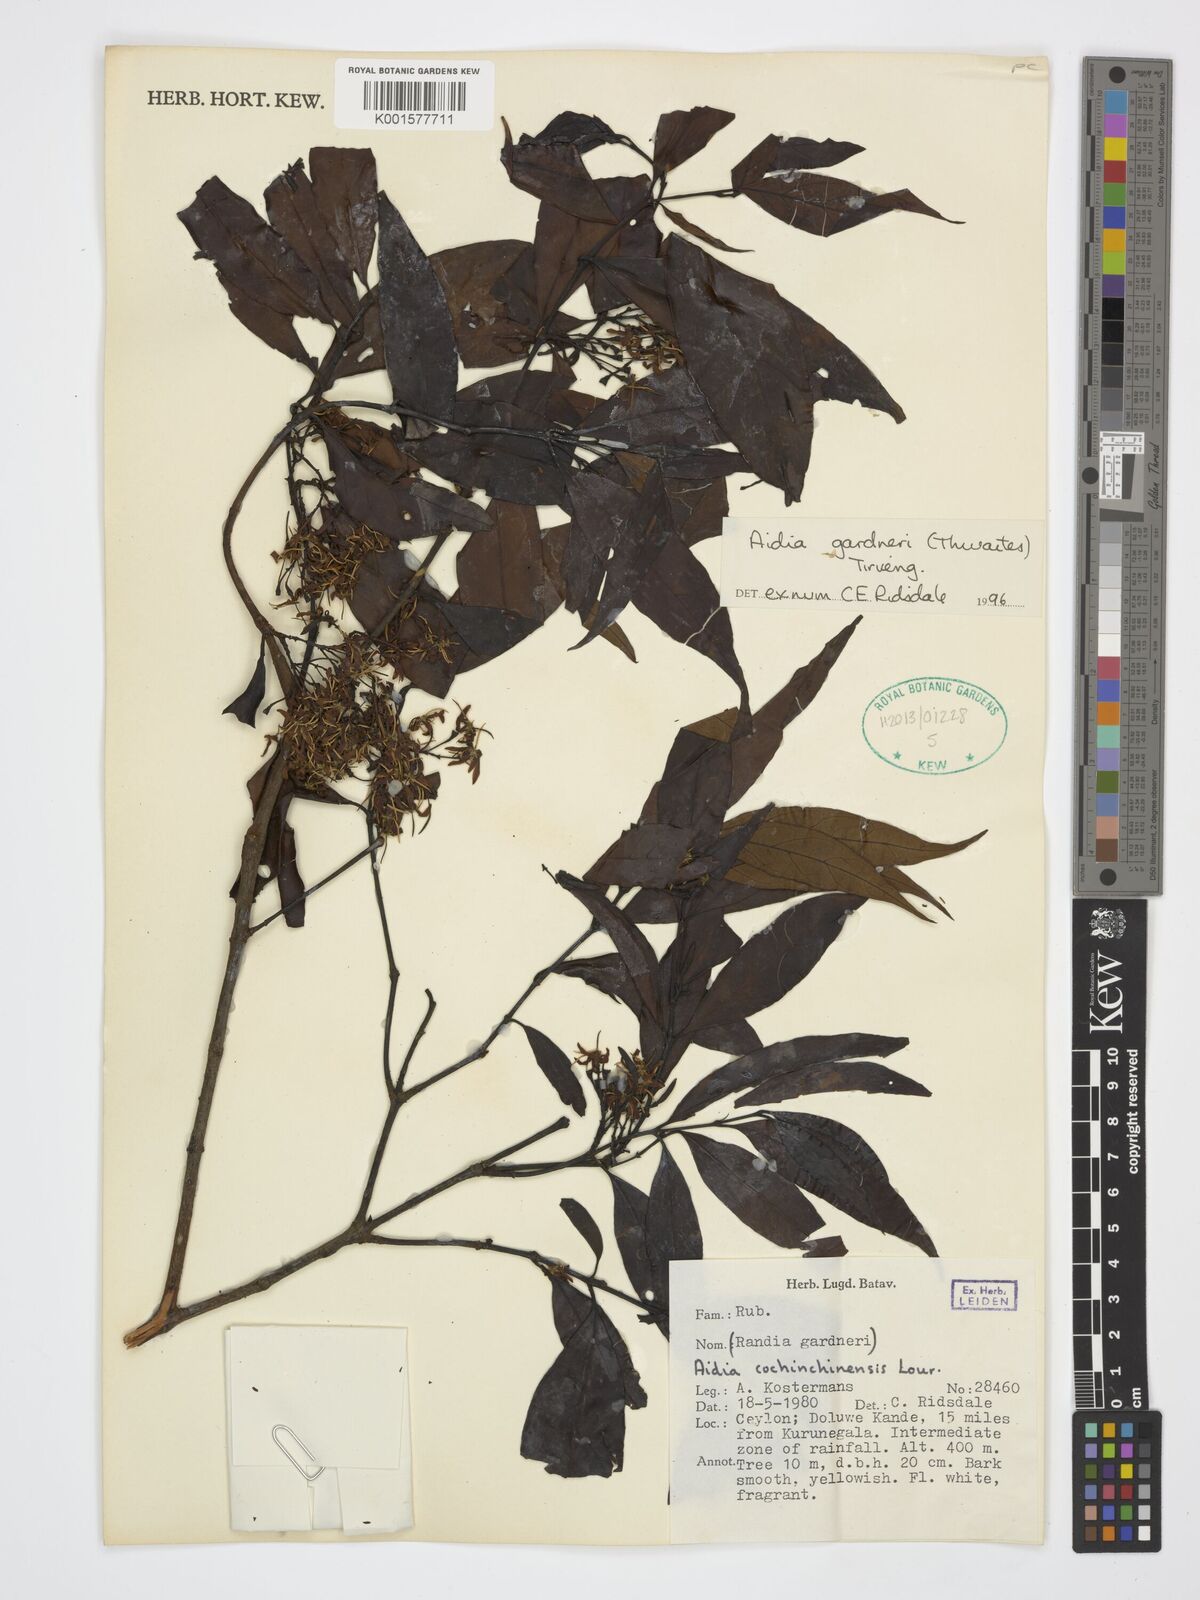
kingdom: Plantae
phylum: Tracheophyta
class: Magnoliopsida
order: Gentianales
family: Rubiaceae
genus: Aidia
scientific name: Aidia gardneri
